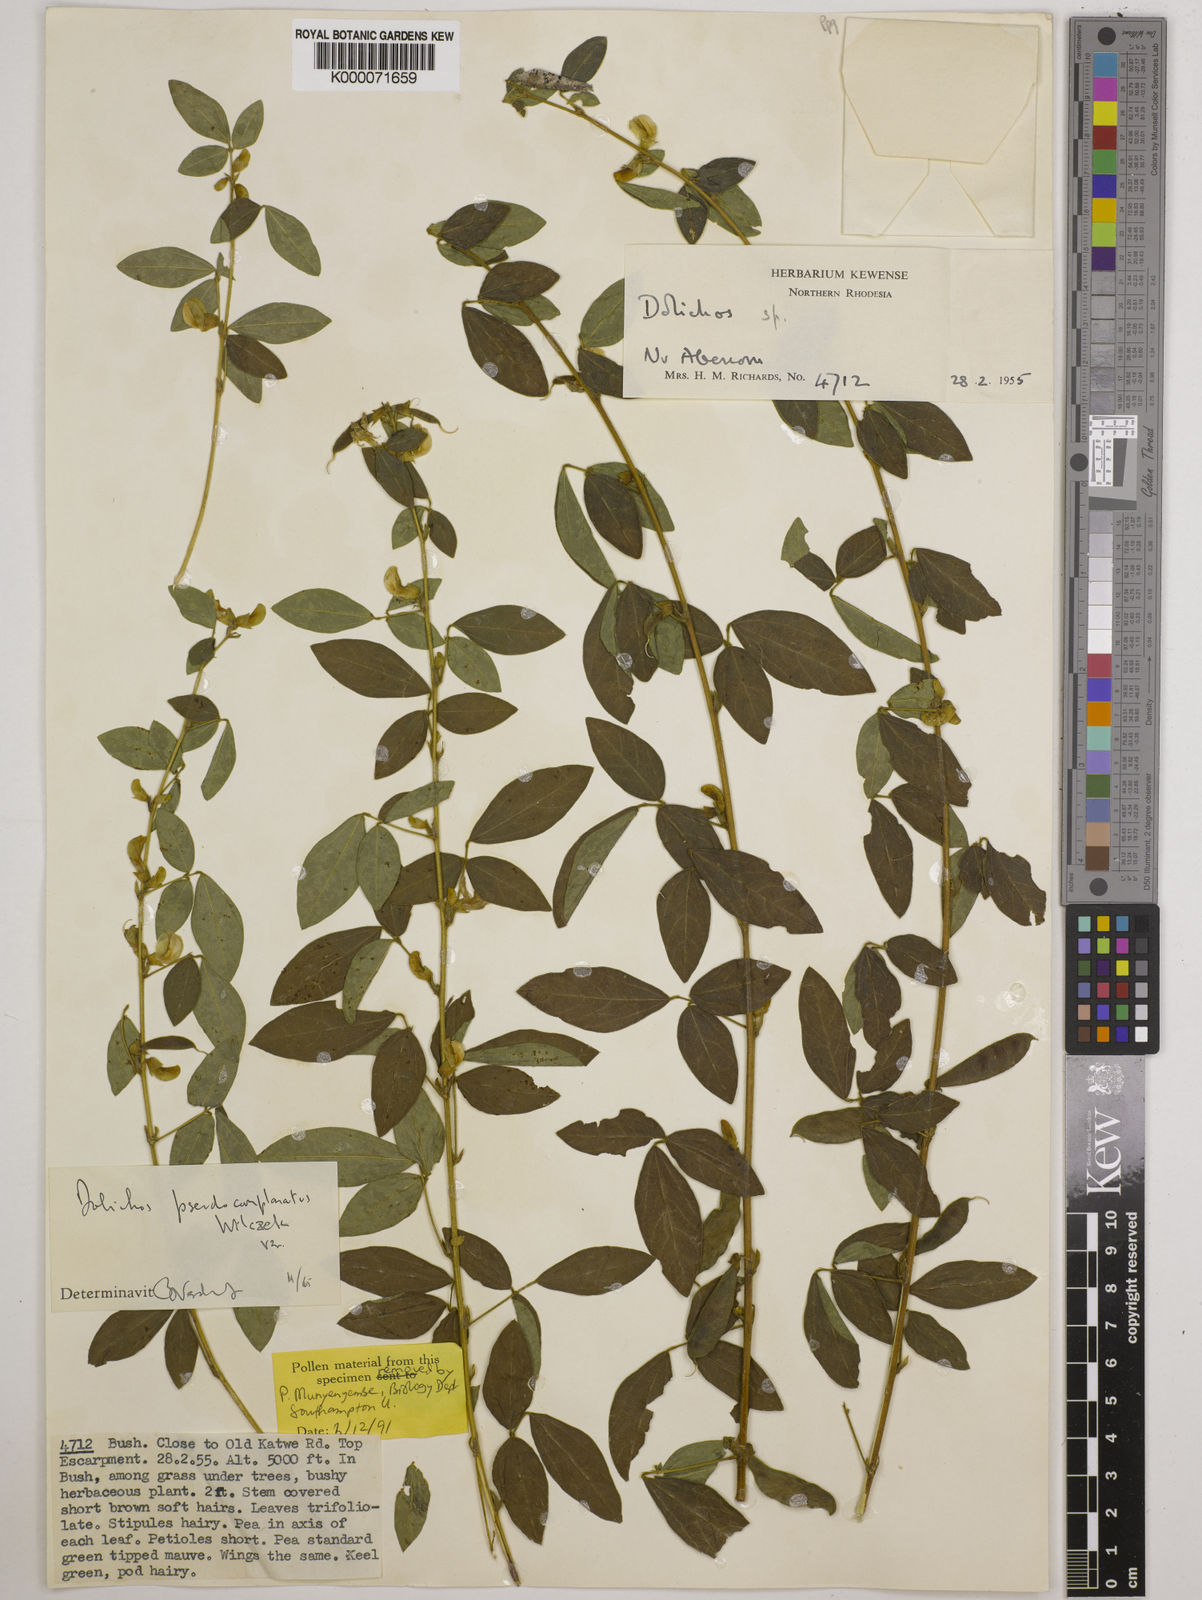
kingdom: Plantae
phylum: Tracheophyta
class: Magnoliopsida
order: Fabales
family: Fabaceae
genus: Dolichos
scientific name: Dolichos
